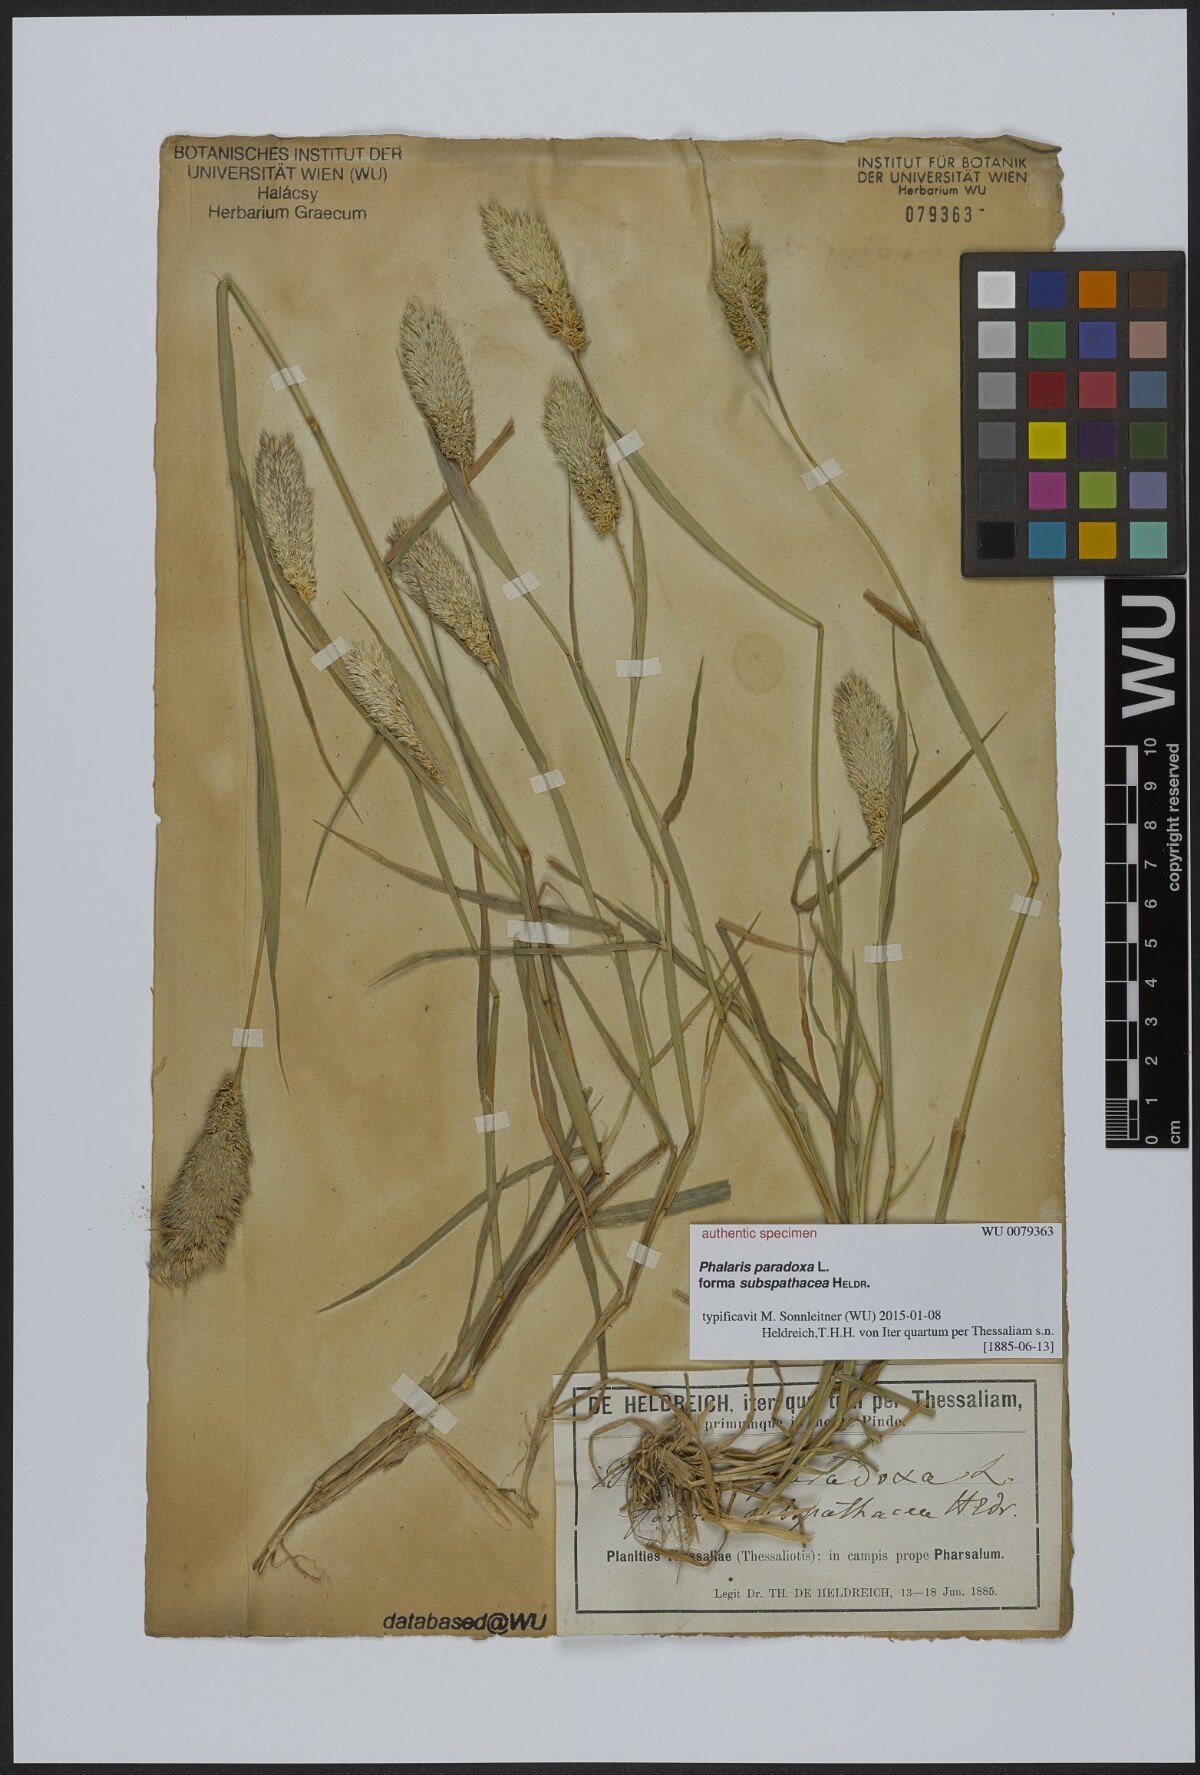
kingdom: Plantae
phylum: Tracheophyta
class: Liliopsida
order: Poales
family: Poaceae
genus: Phalaris
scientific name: Phalaris paradoxa
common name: Awned canary-grass
